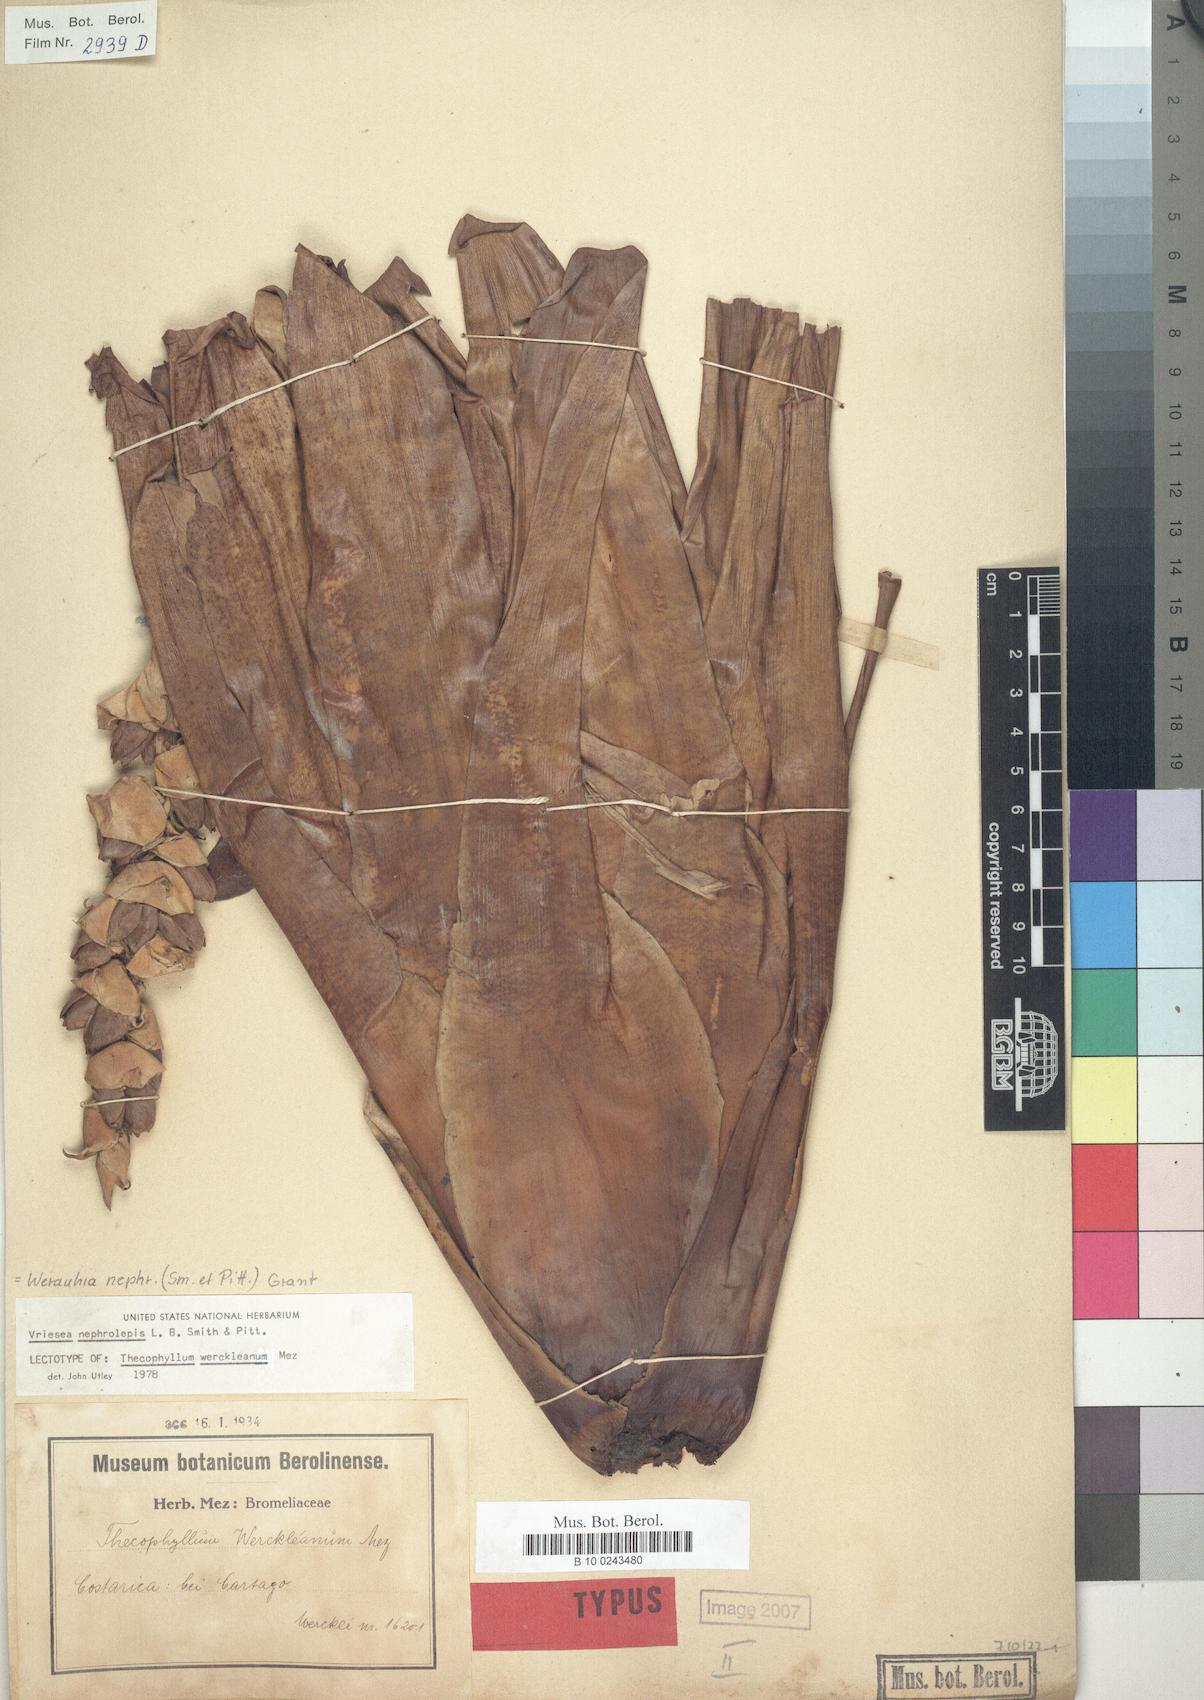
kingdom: Plantae
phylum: Tracheophyta
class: Liliopsida
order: Poales
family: Bromeliaceae
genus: Werauhia
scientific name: Werauhia montana
